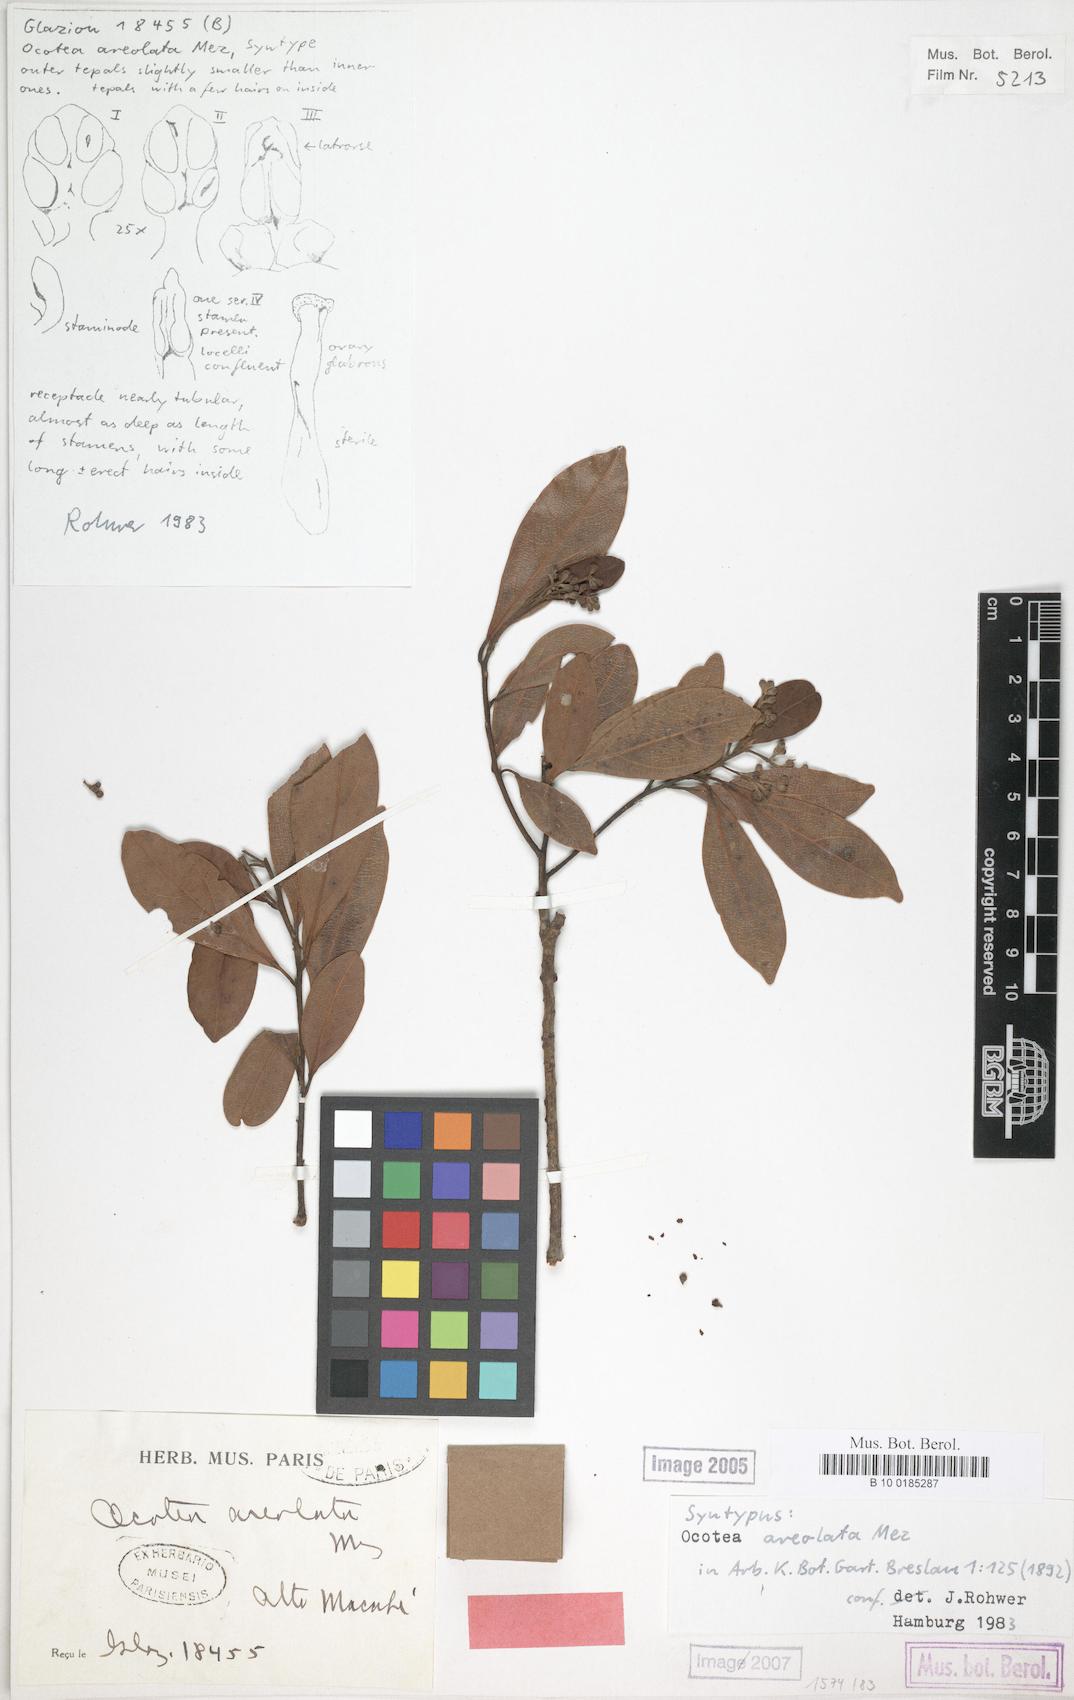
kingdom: Plantae
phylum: Tracheophyta
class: Magnoliopsida
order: Laurales
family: Lauraceae
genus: Mespilodaphne
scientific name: Mespilodaphne tristis
